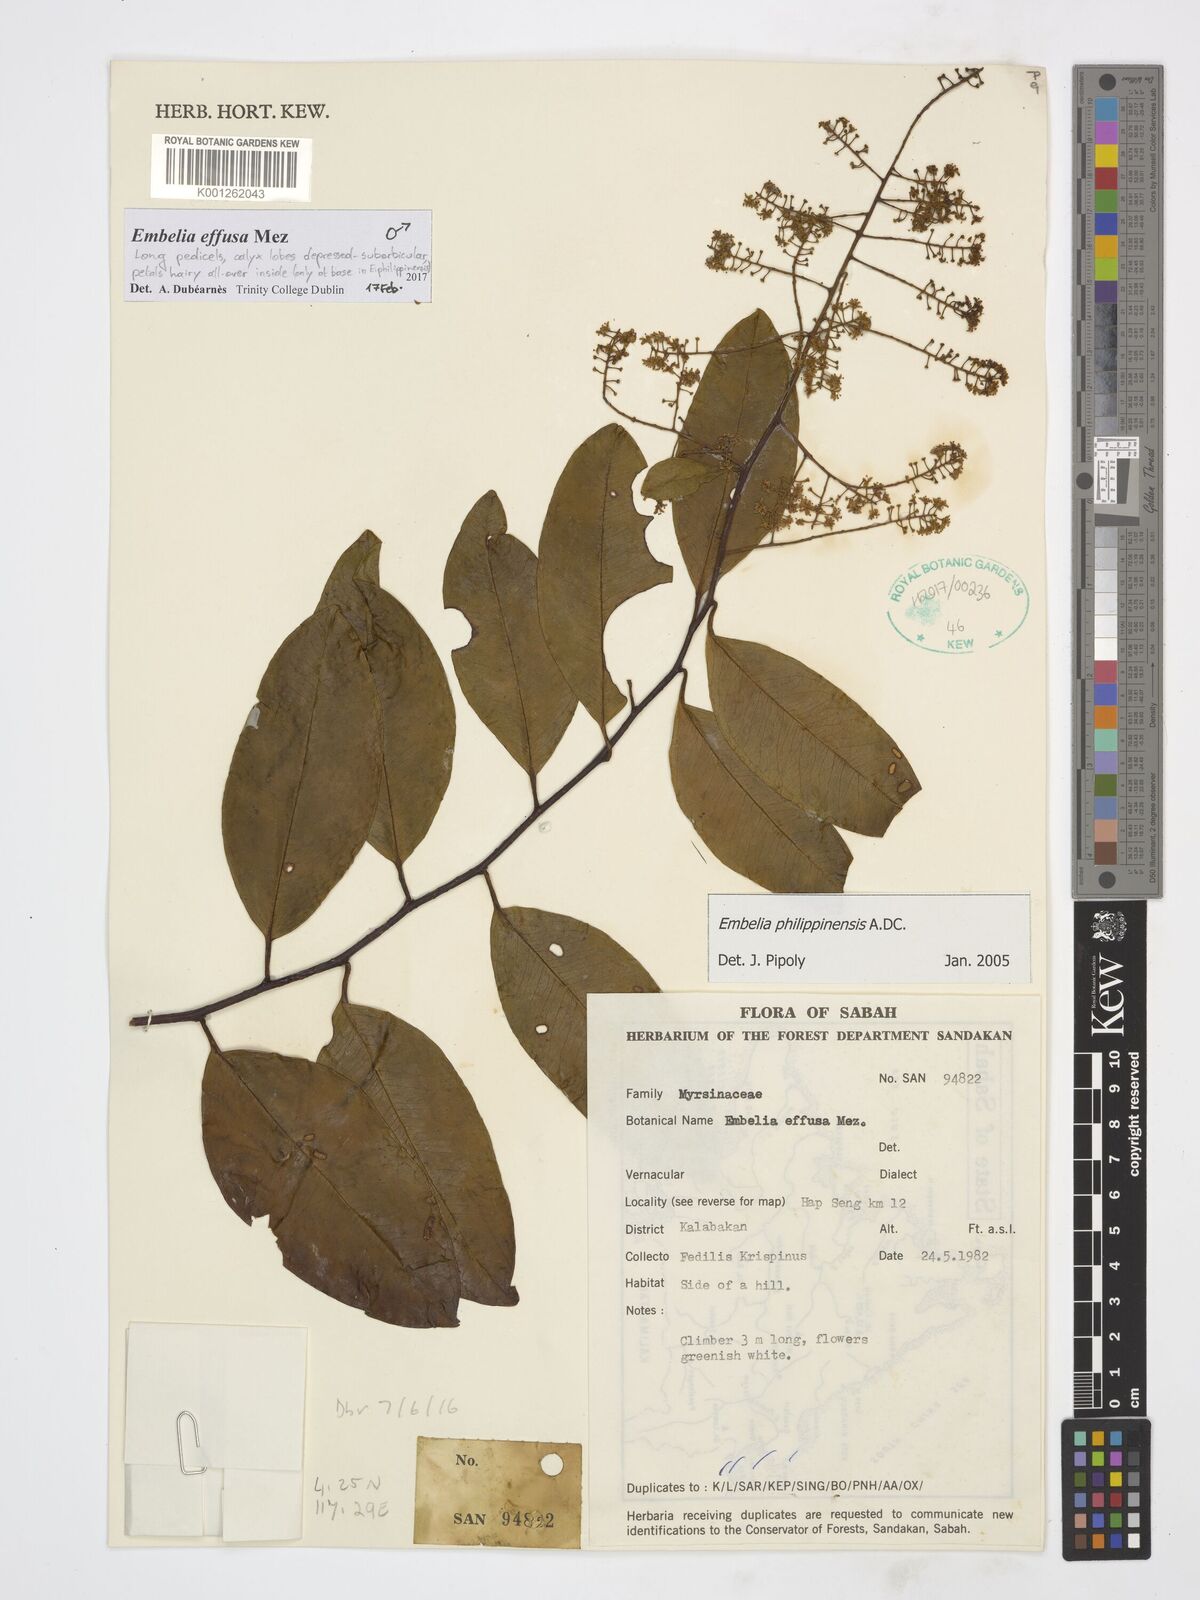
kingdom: Plantae
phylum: Tracheophyta
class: Magnoliopsida
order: Ericales
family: Primulaceae
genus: Embelia
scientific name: Embelia effusa
